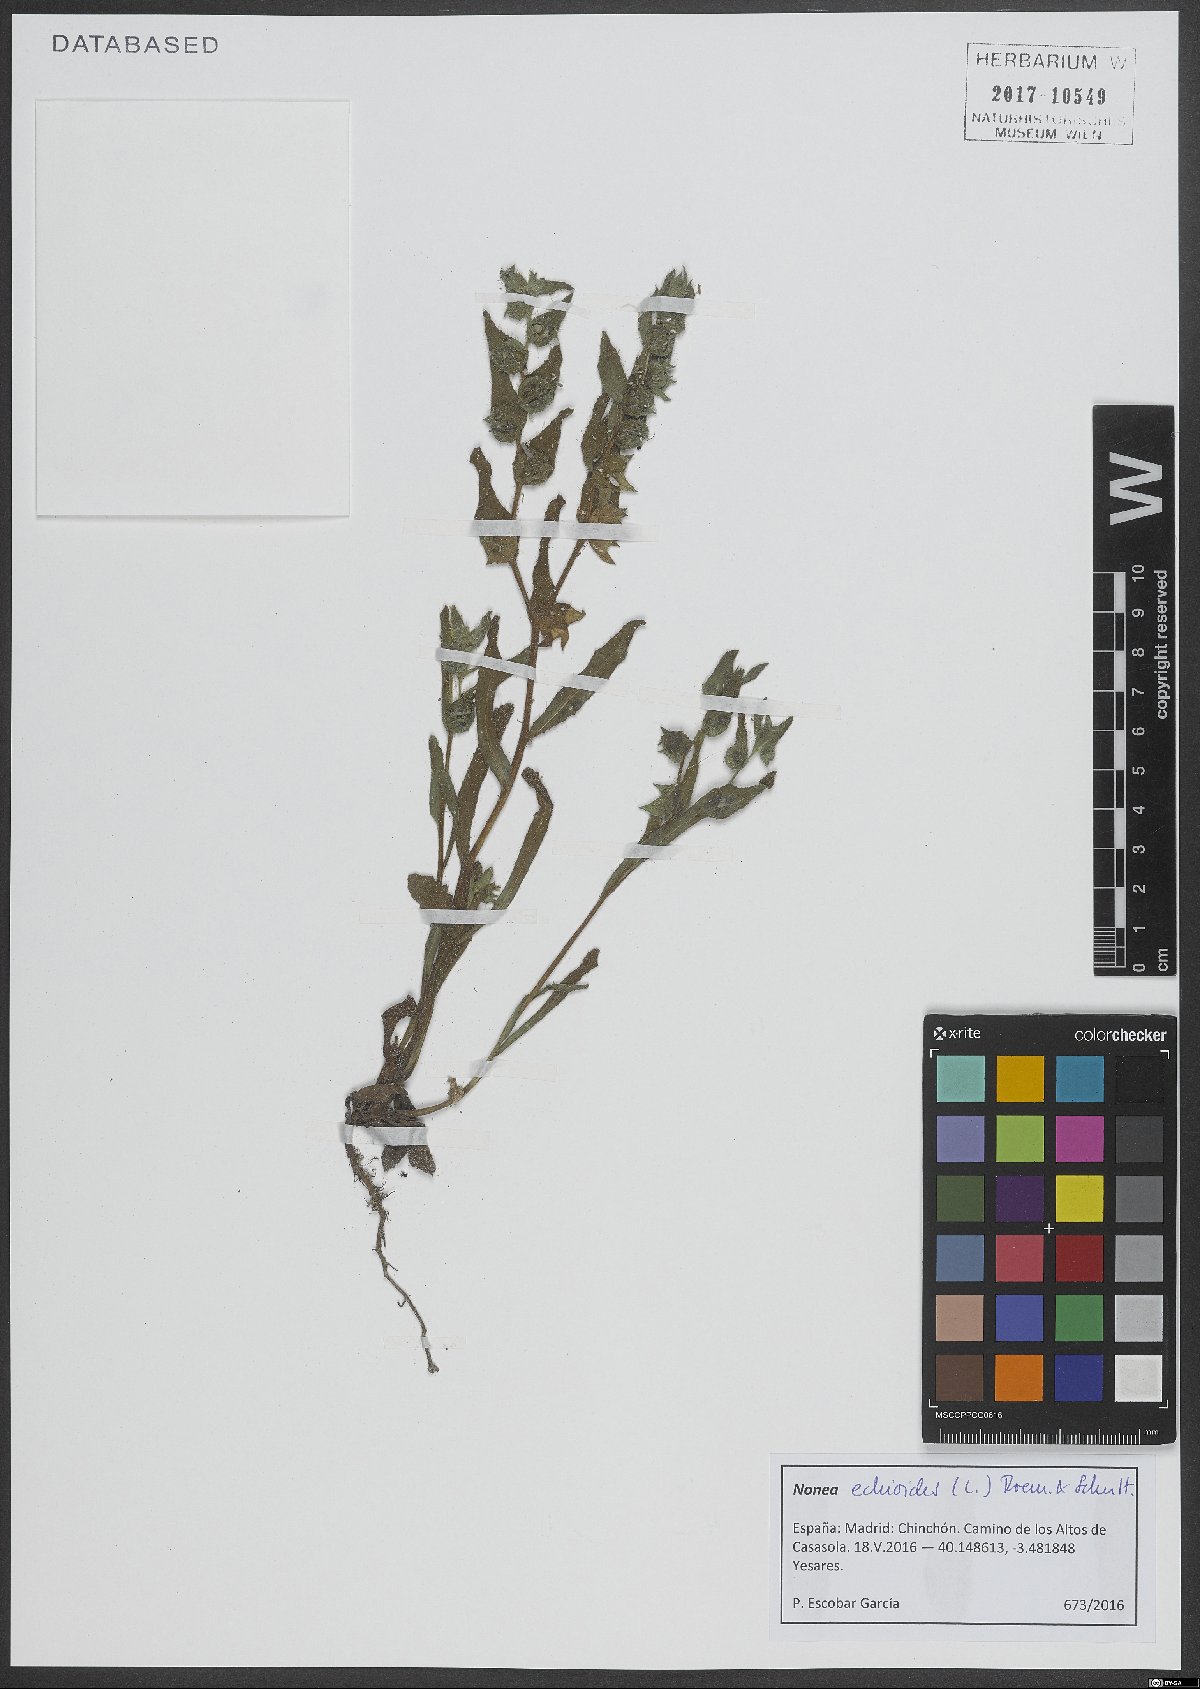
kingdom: Plantae
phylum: Tracheophyta
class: Magnoliopsida
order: Boraginales
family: Boraginaceae
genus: Nonea
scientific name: Nonea echioides
